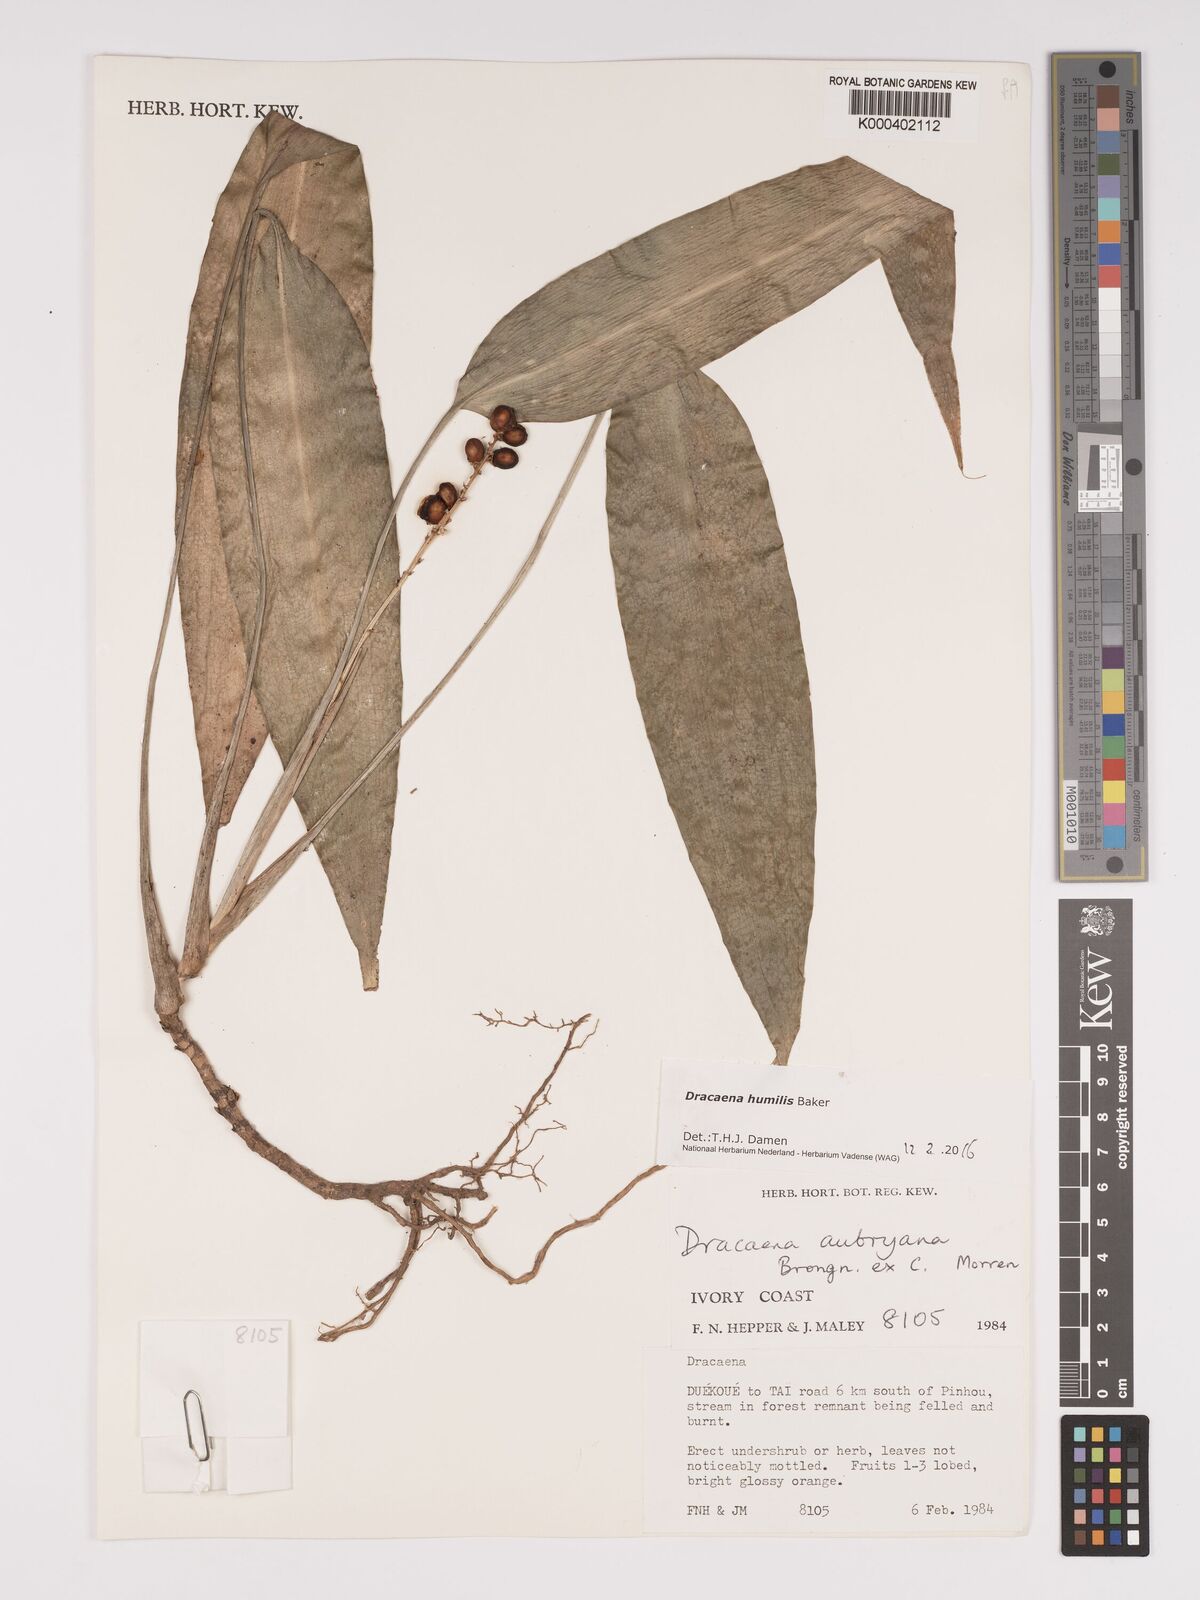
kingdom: Plantae
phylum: Tracheophyta
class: Liliopsida
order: Asparagales
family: Asparagaceae
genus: Dracaena
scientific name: Dracaena aubryana
